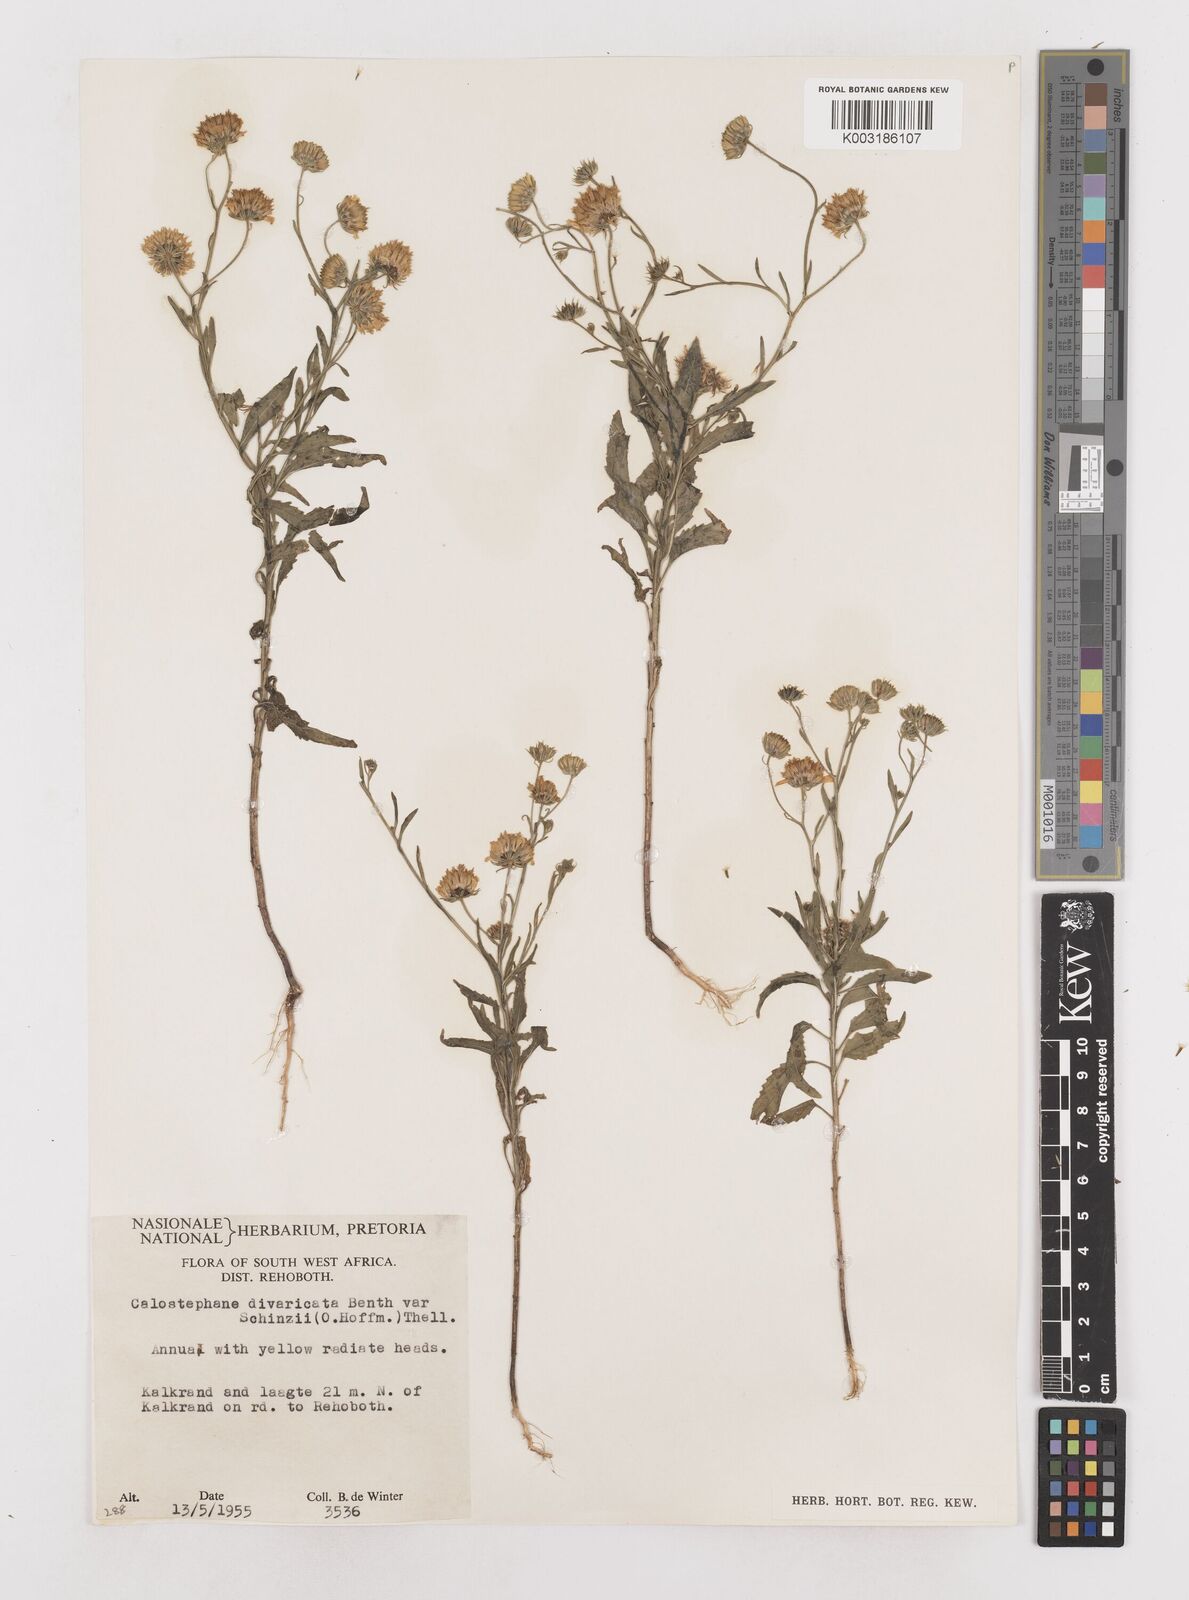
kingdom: Plantae
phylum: Tracheophyta
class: Magnoliopsida
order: Asterales
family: Asteraceae
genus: Calostephane
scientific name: Calostephane divaricata
